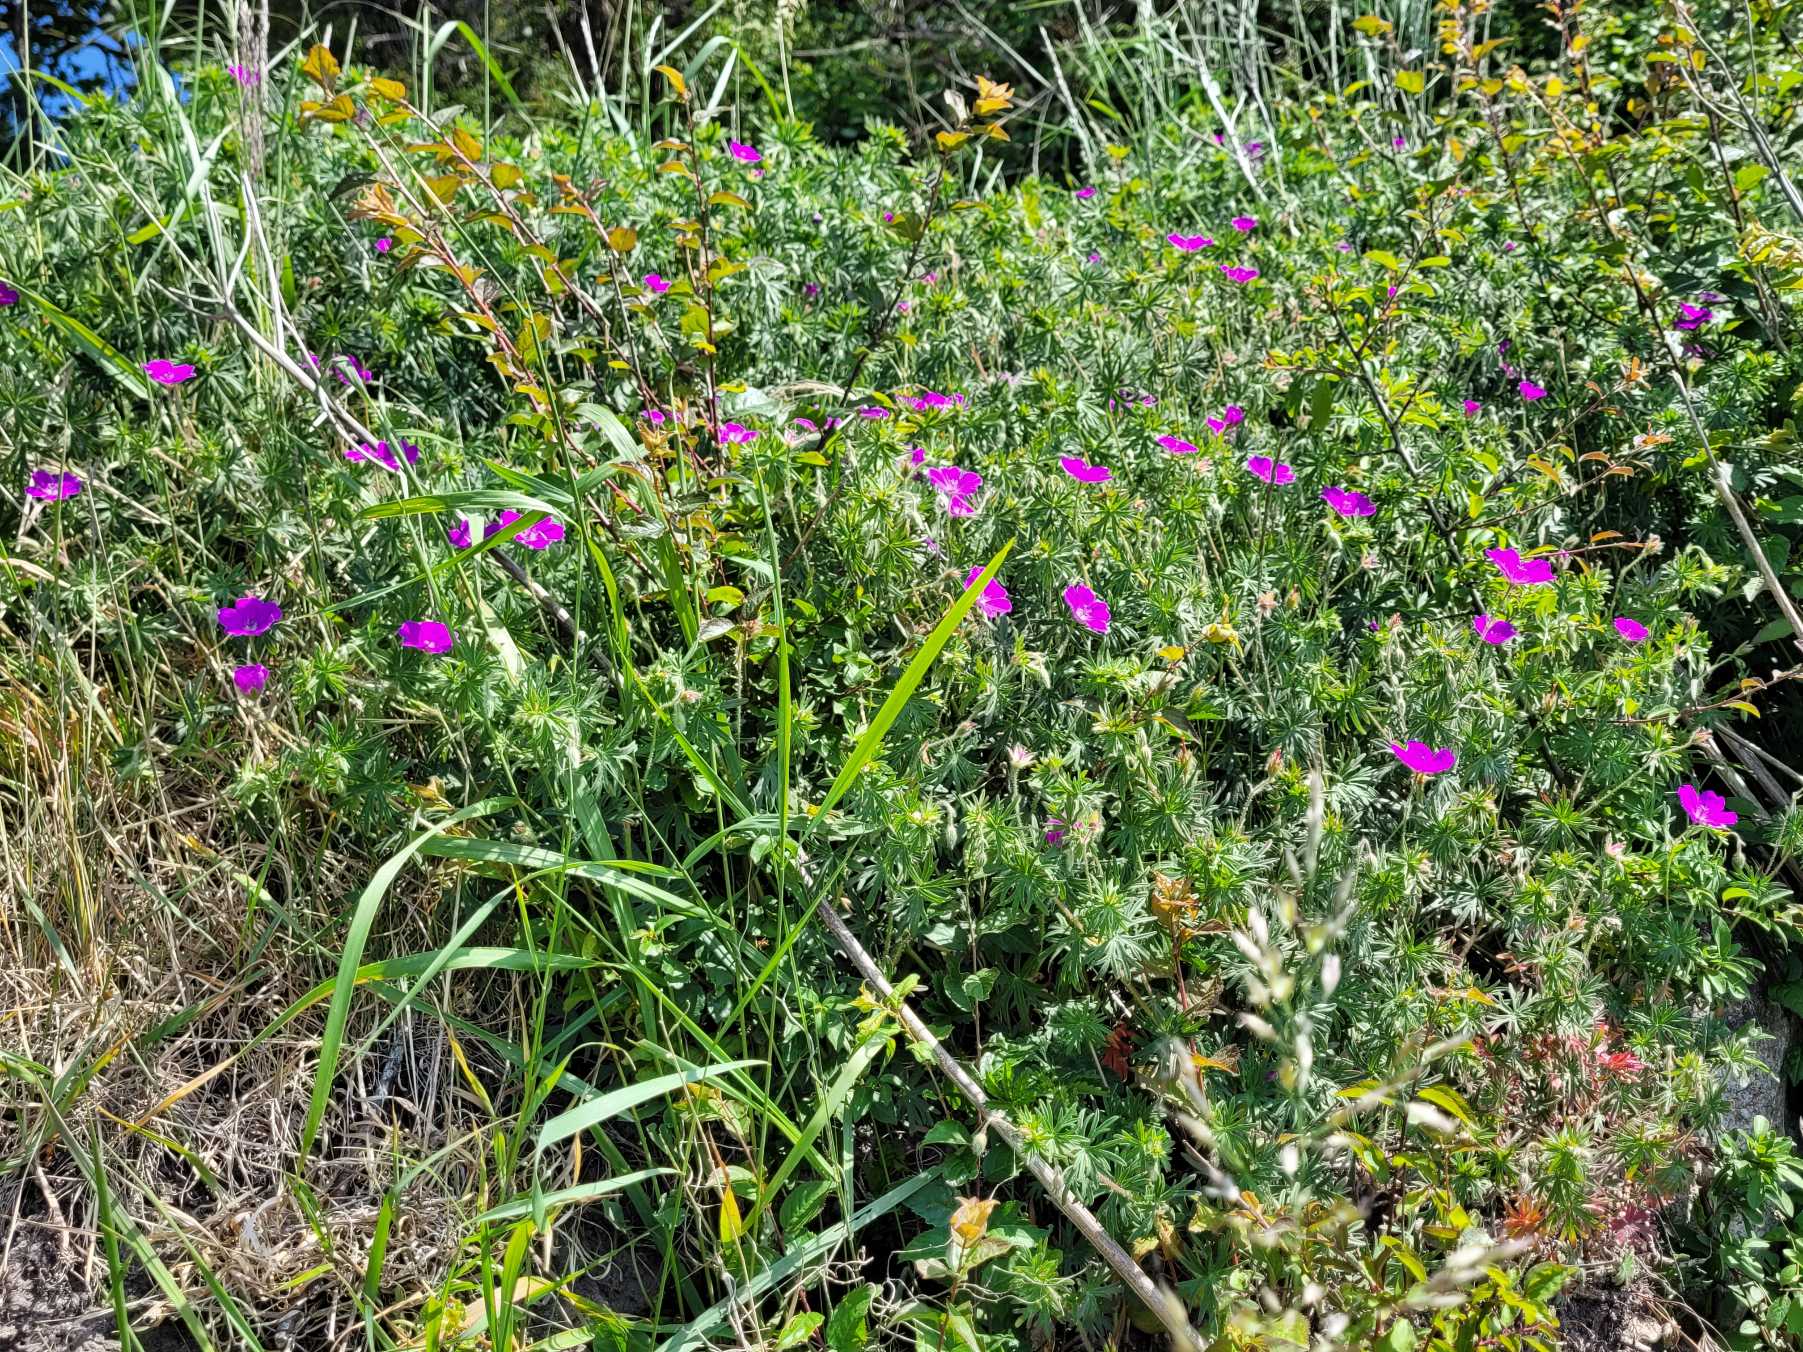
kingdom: Plantae
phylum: Tracheophyta
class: Magnoliopsida
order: Geraniales
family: Geraniaceae
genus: Geranium
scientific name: Geranium sanguineum
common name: Blodrød storkenæb
